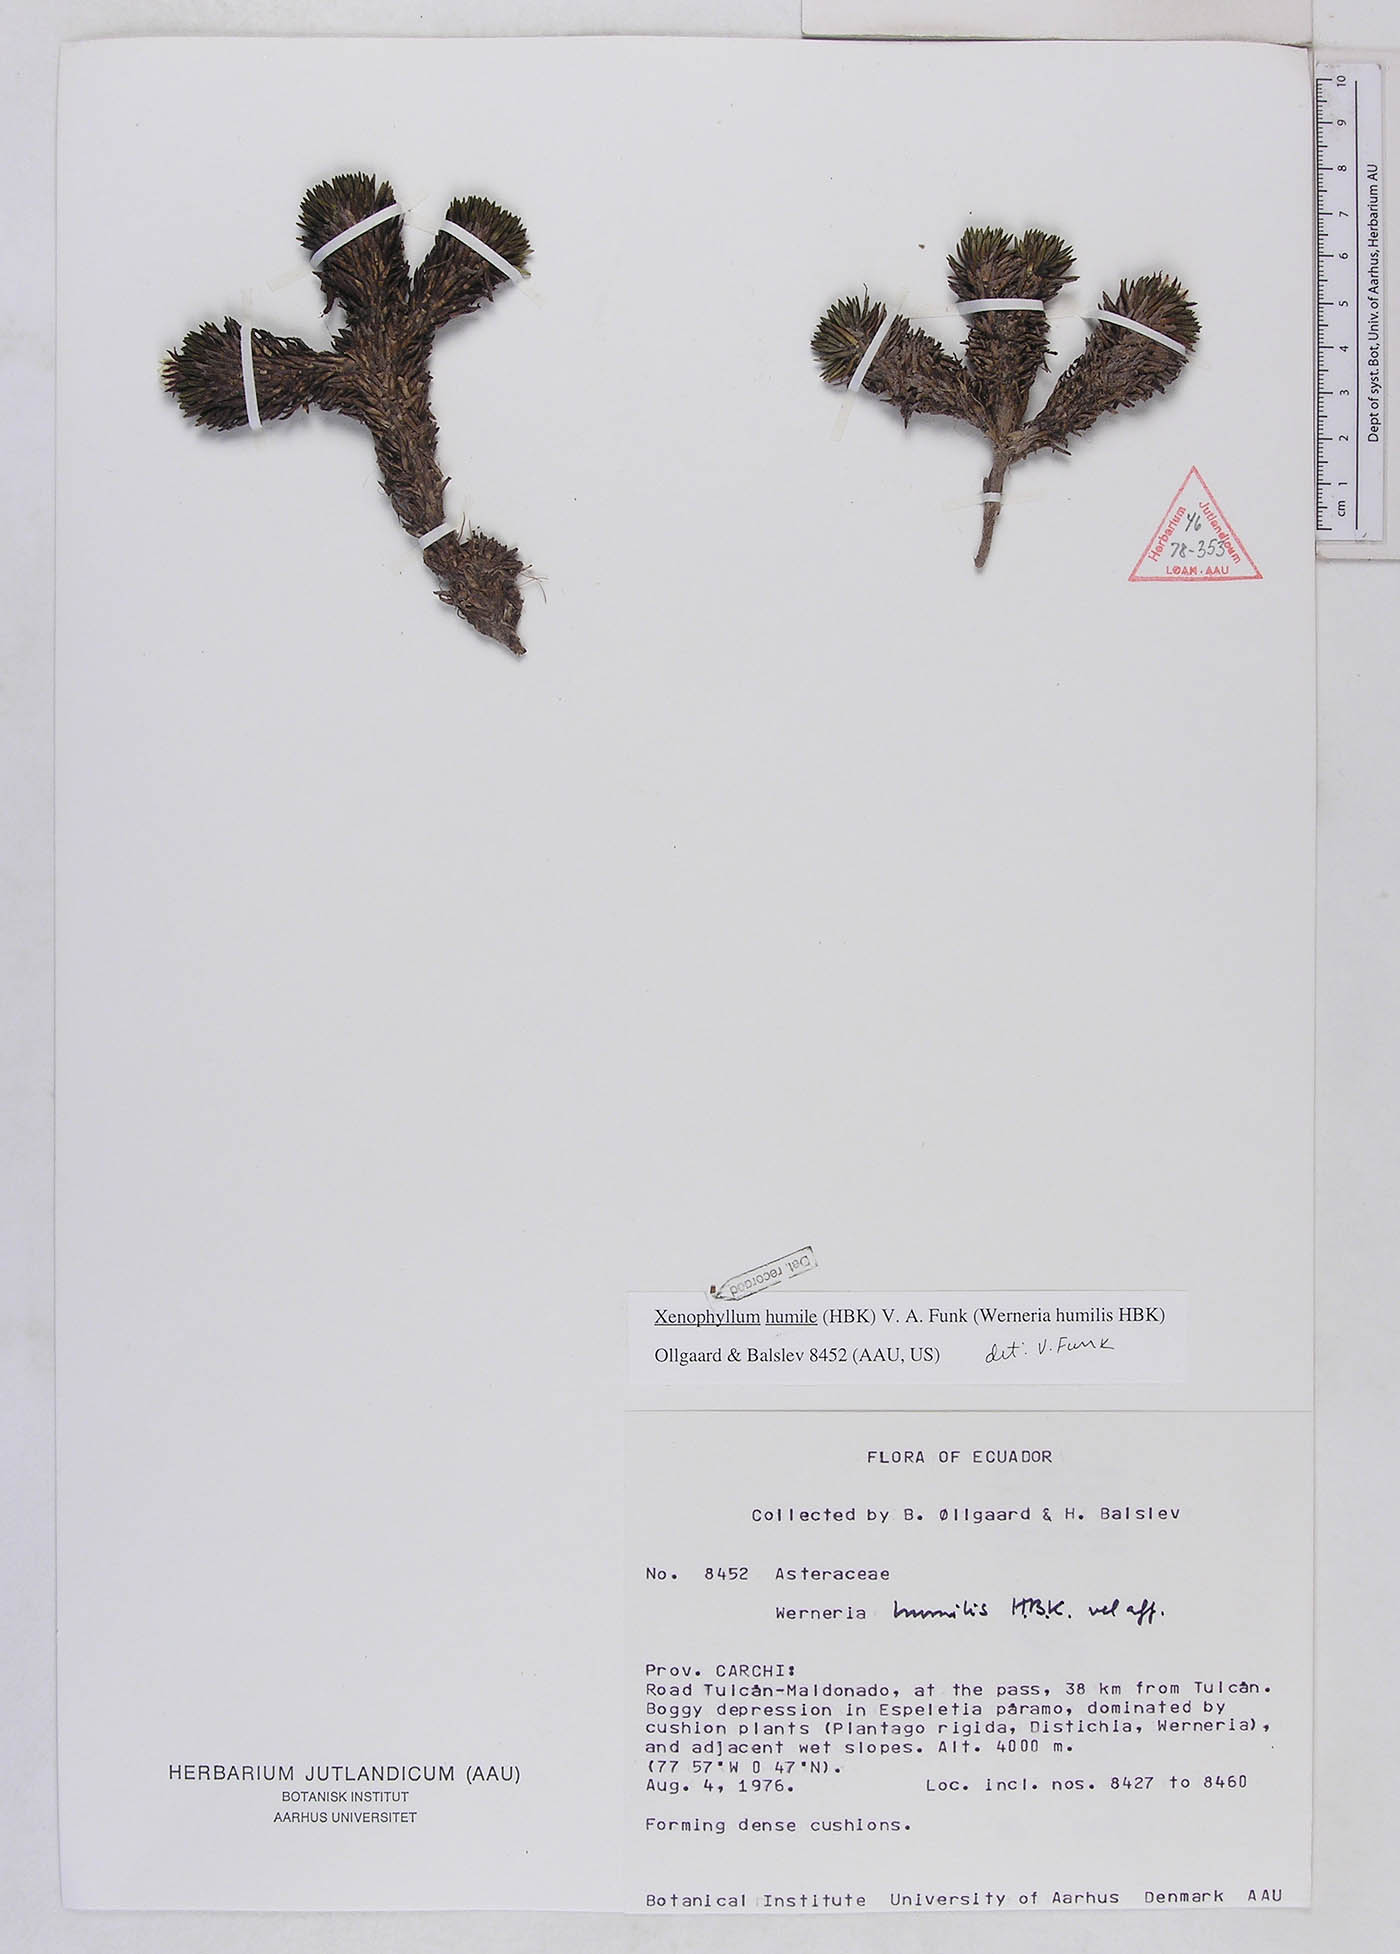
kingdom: Plantae
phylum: Tracheophyta
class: Magnoliopsida
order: Asterales
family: Asteraceae
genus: Werneria
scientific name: Werneria humilis
